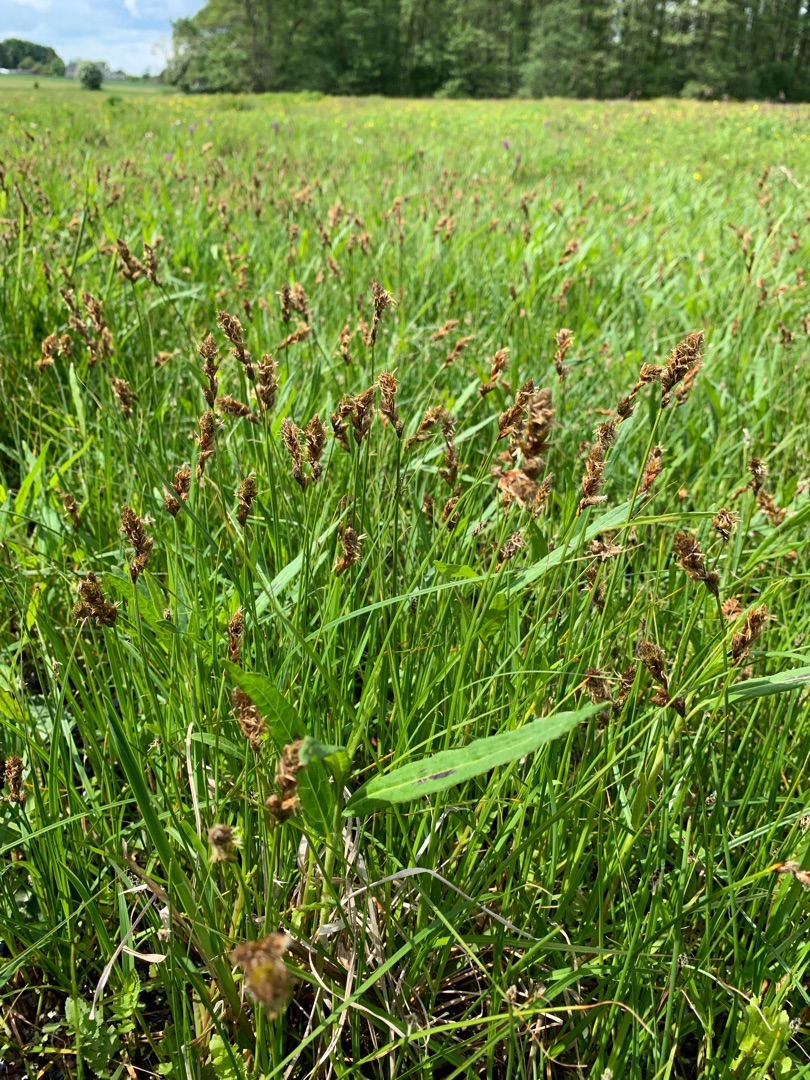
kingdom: Plantae
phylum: Tracheophyta
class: Liliopsida
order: Poales
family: Cyperaceae
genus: Carex
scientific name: Carex disticha
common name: Toradet star
